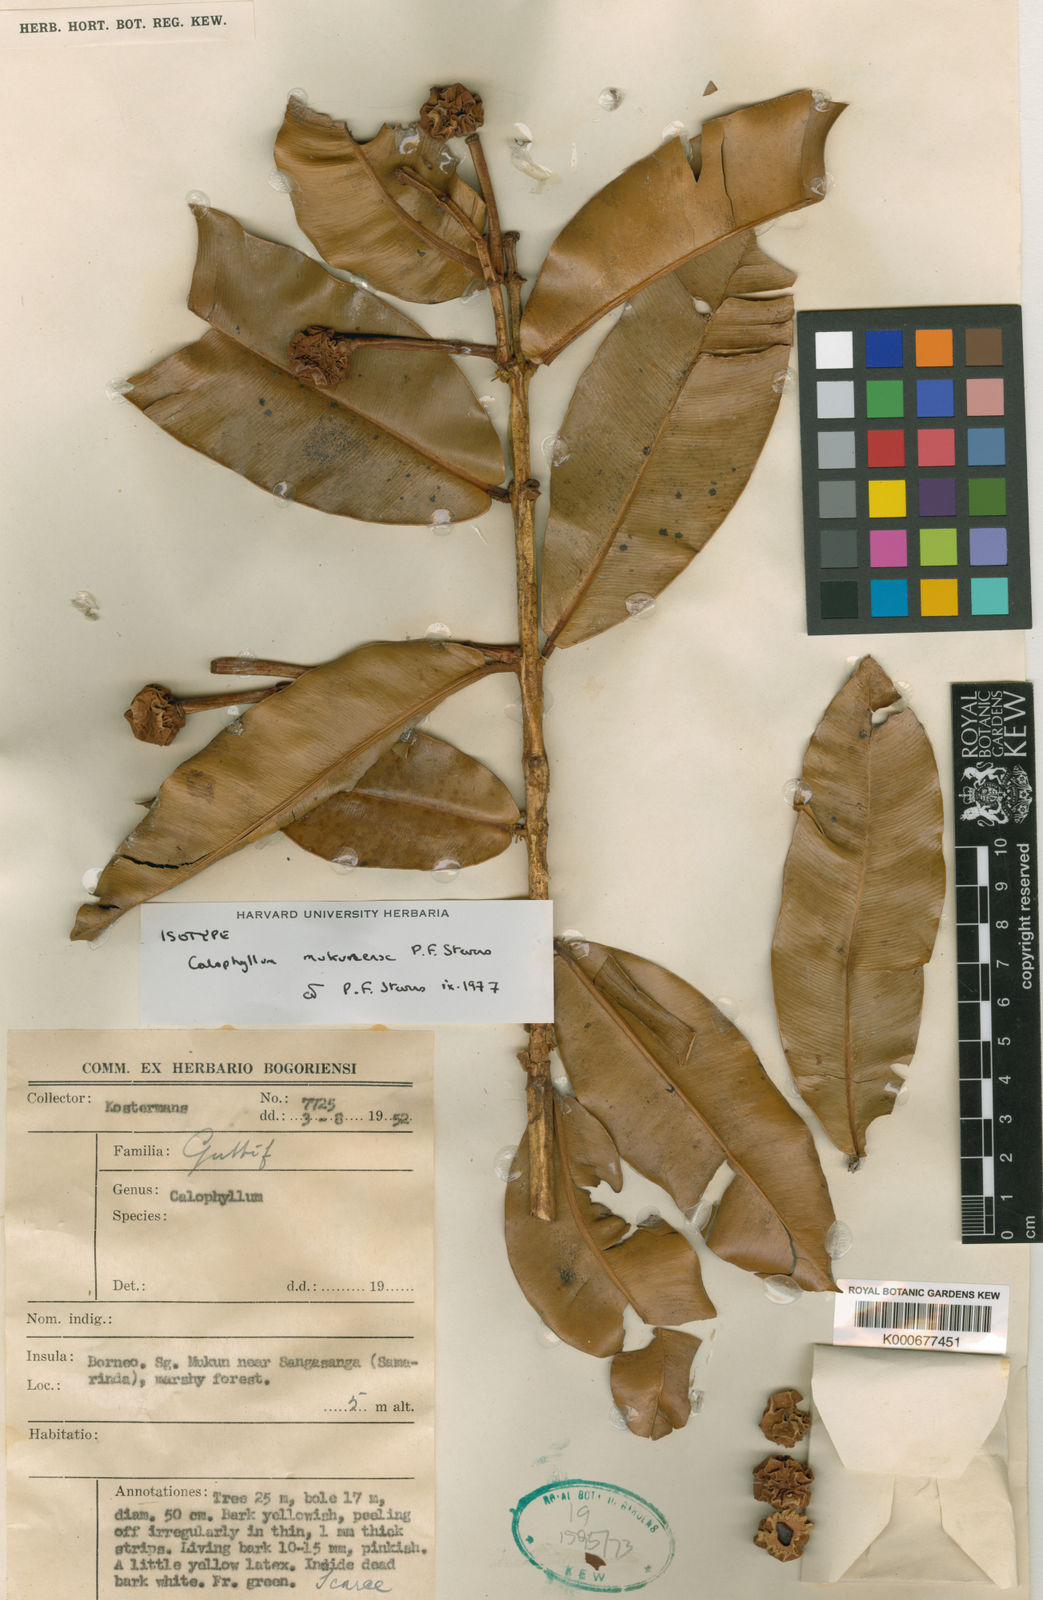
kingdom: Plantae
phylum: Tracheophyta
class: Magnoliopsida
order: Malpighiales
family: Calophyllaceae
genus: Calophyllum
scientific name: Calophyllum mukunense
